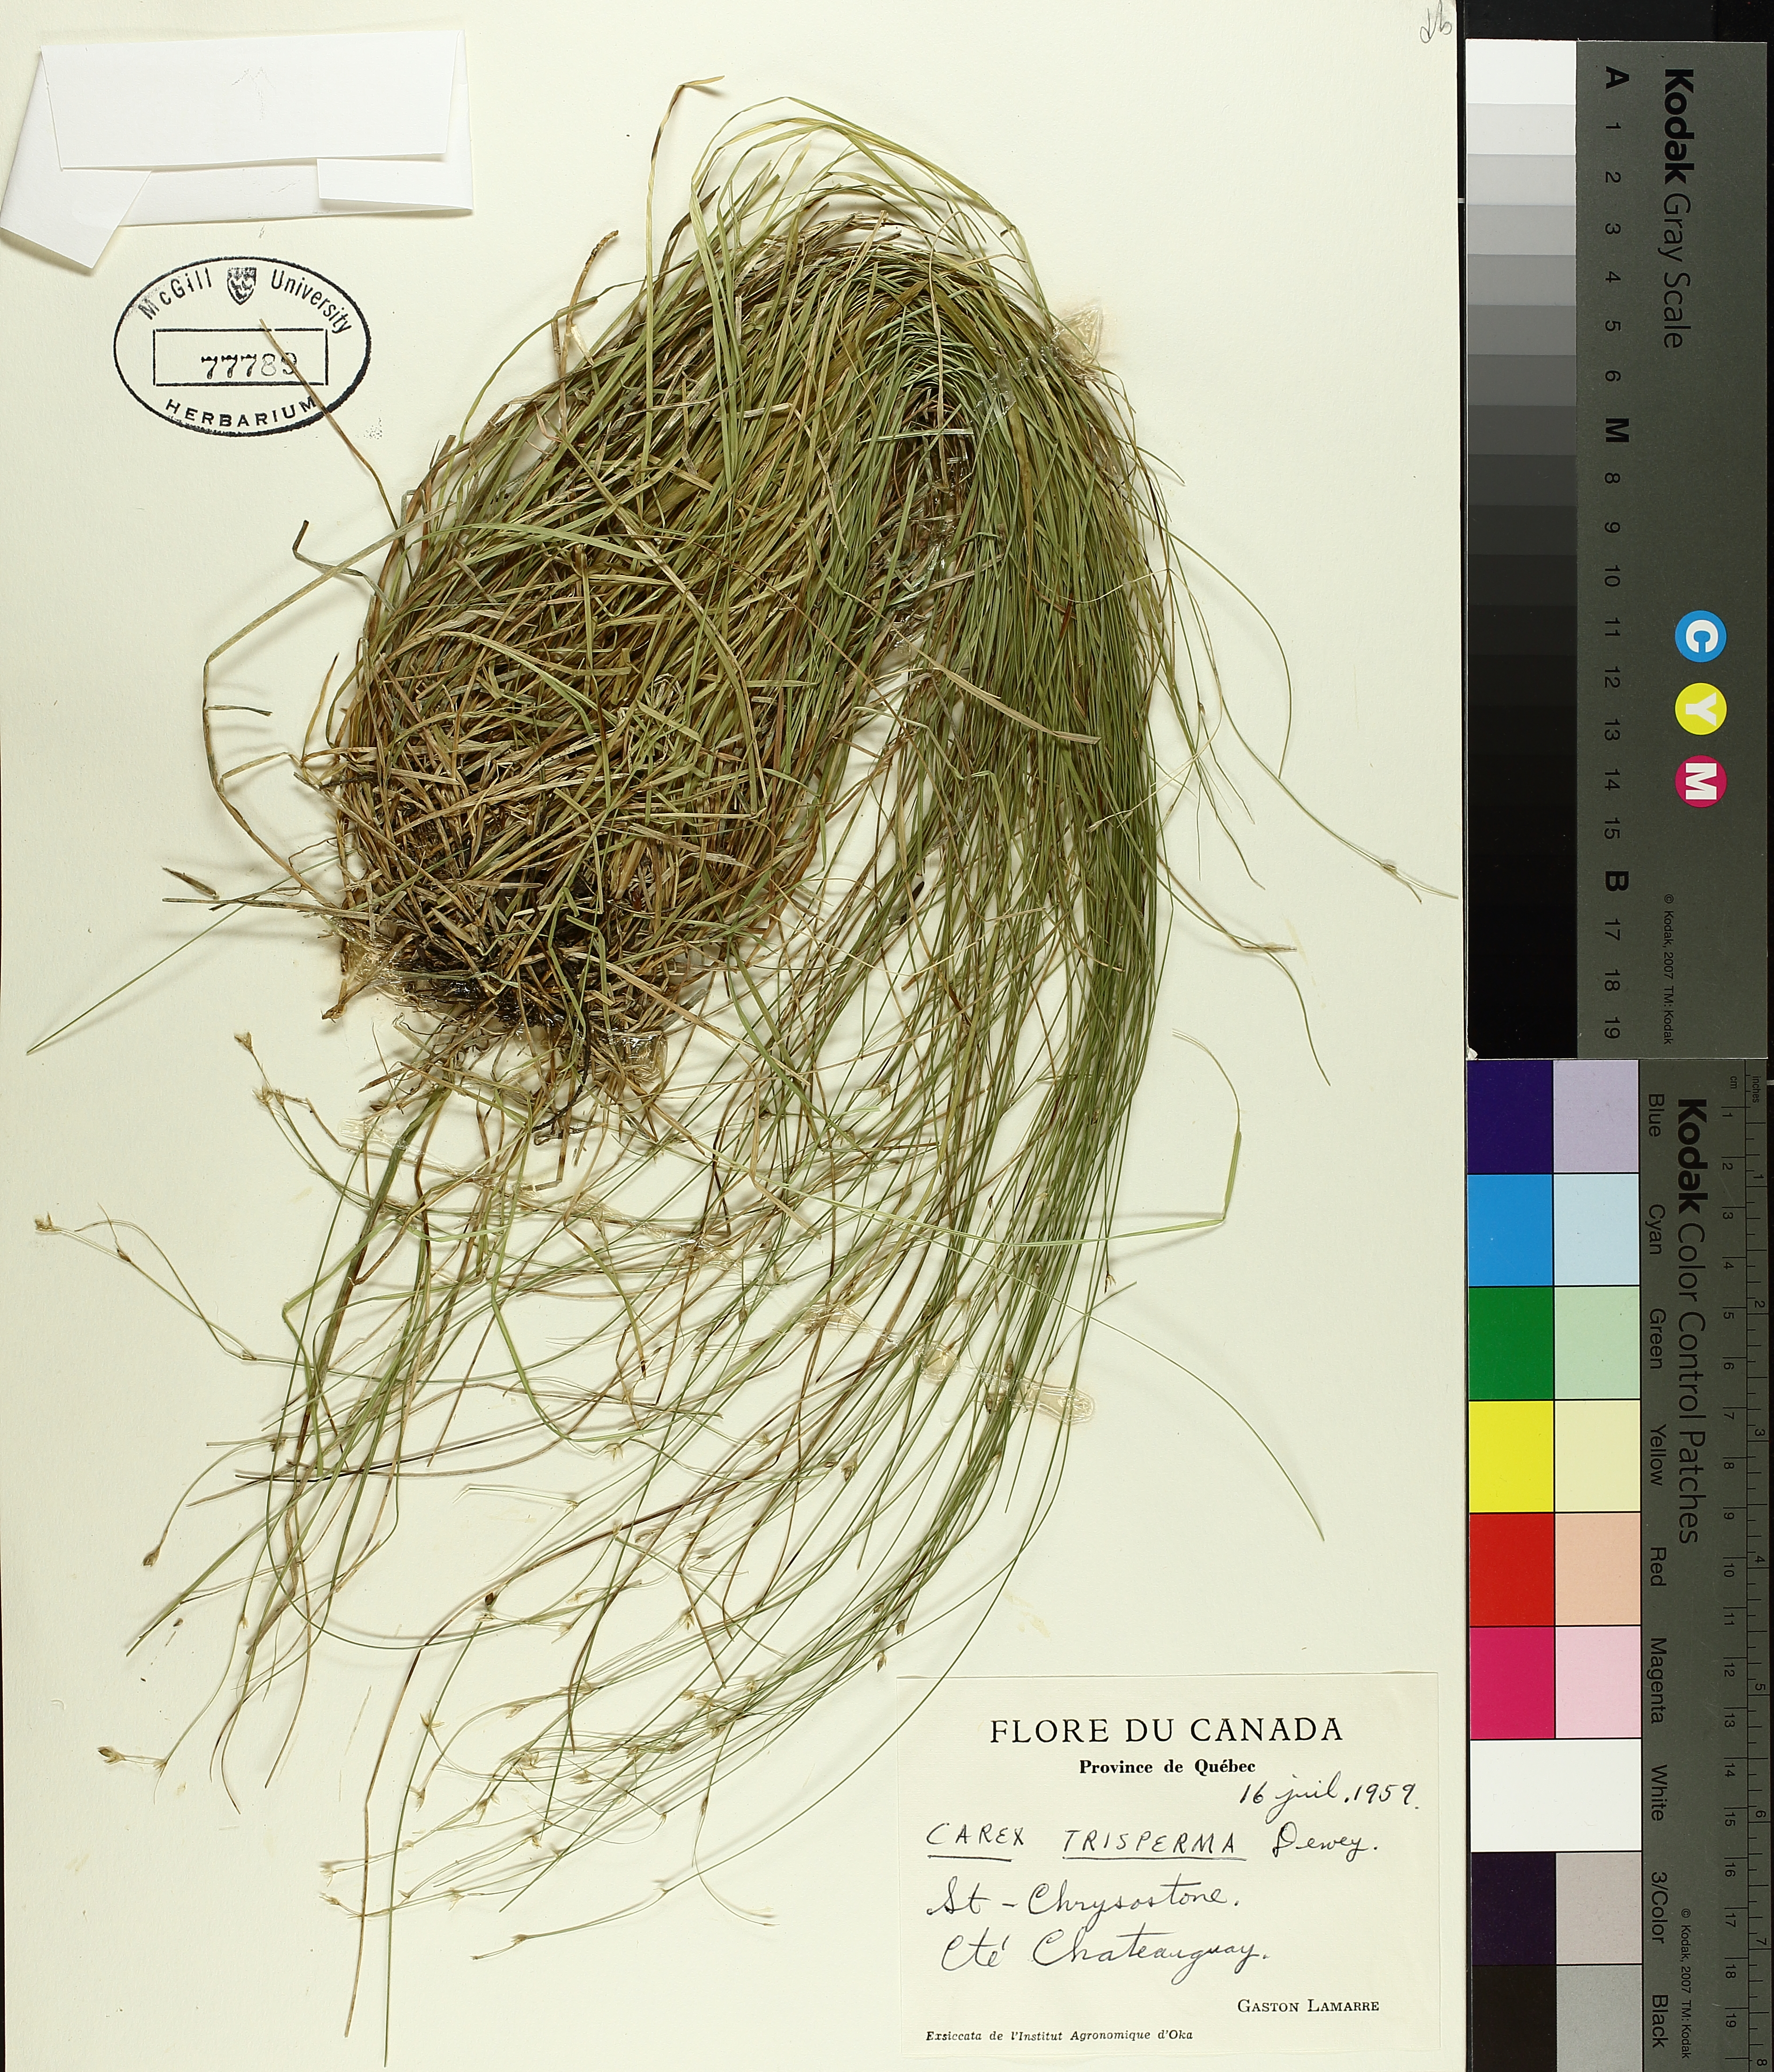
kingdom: Plantae
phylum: Tracheophyta
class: Liliopsida
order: Poales
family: Cyperaceae
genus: Carex
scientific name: Carex trisperma
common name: Three-seeded sedge
